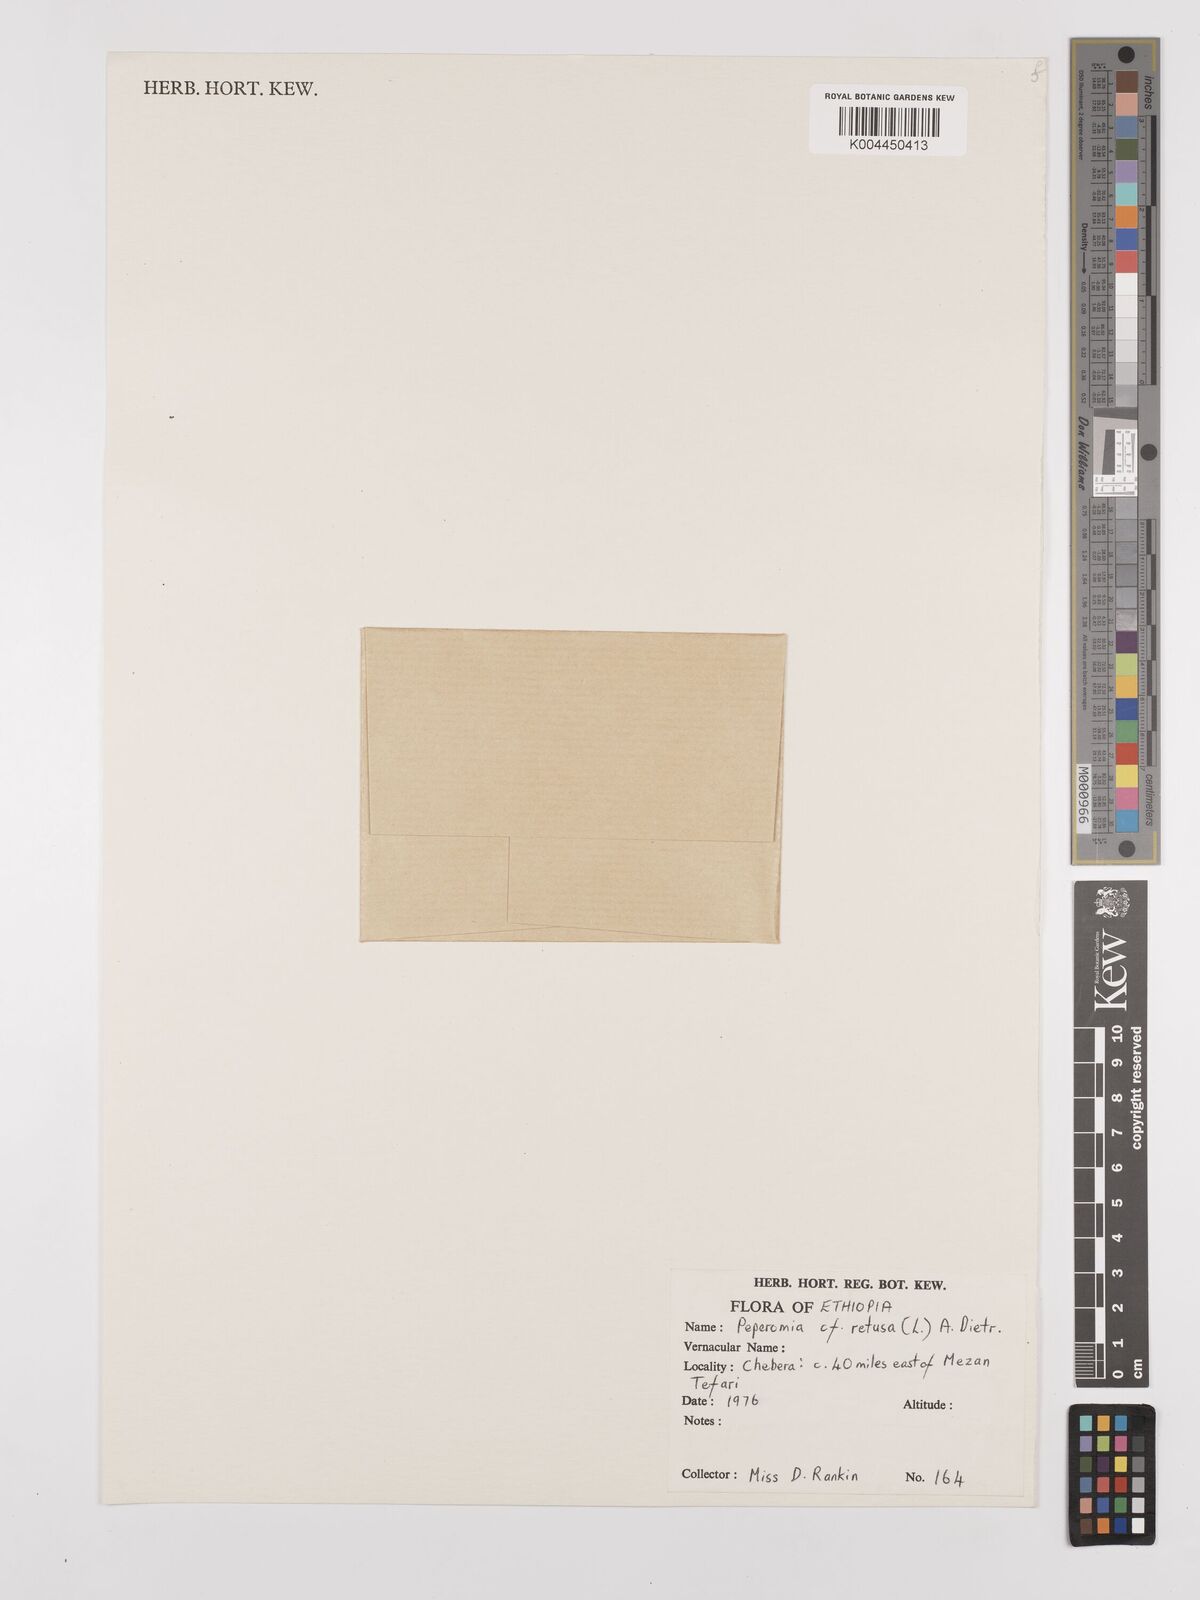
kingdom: Plantae
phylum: Tracheophyta
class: Magnoliopsida
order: Piperales
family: Piperaceae
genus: Peperomia
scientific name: Peperomia retusa
